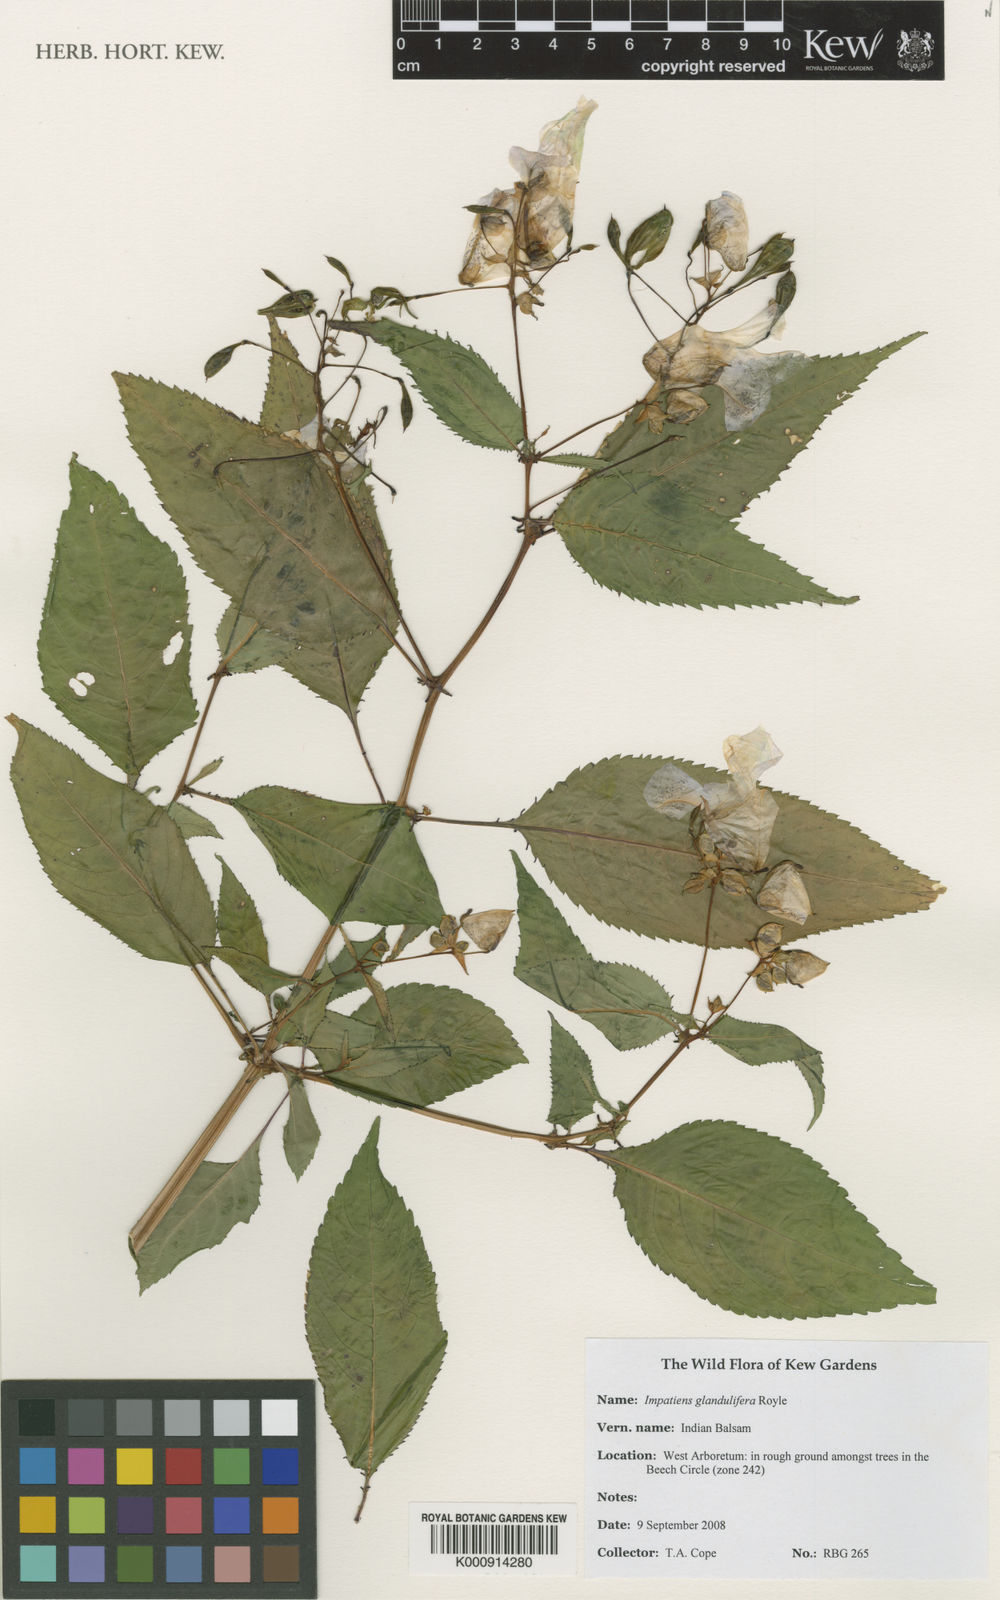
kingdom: Plantae
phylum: Tracheophyta
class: Magnoliopsida
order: Ericales
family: Balsaminaceae
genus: Impatiens
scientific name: Impatiens glandulifera
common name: Himalayan balsam
